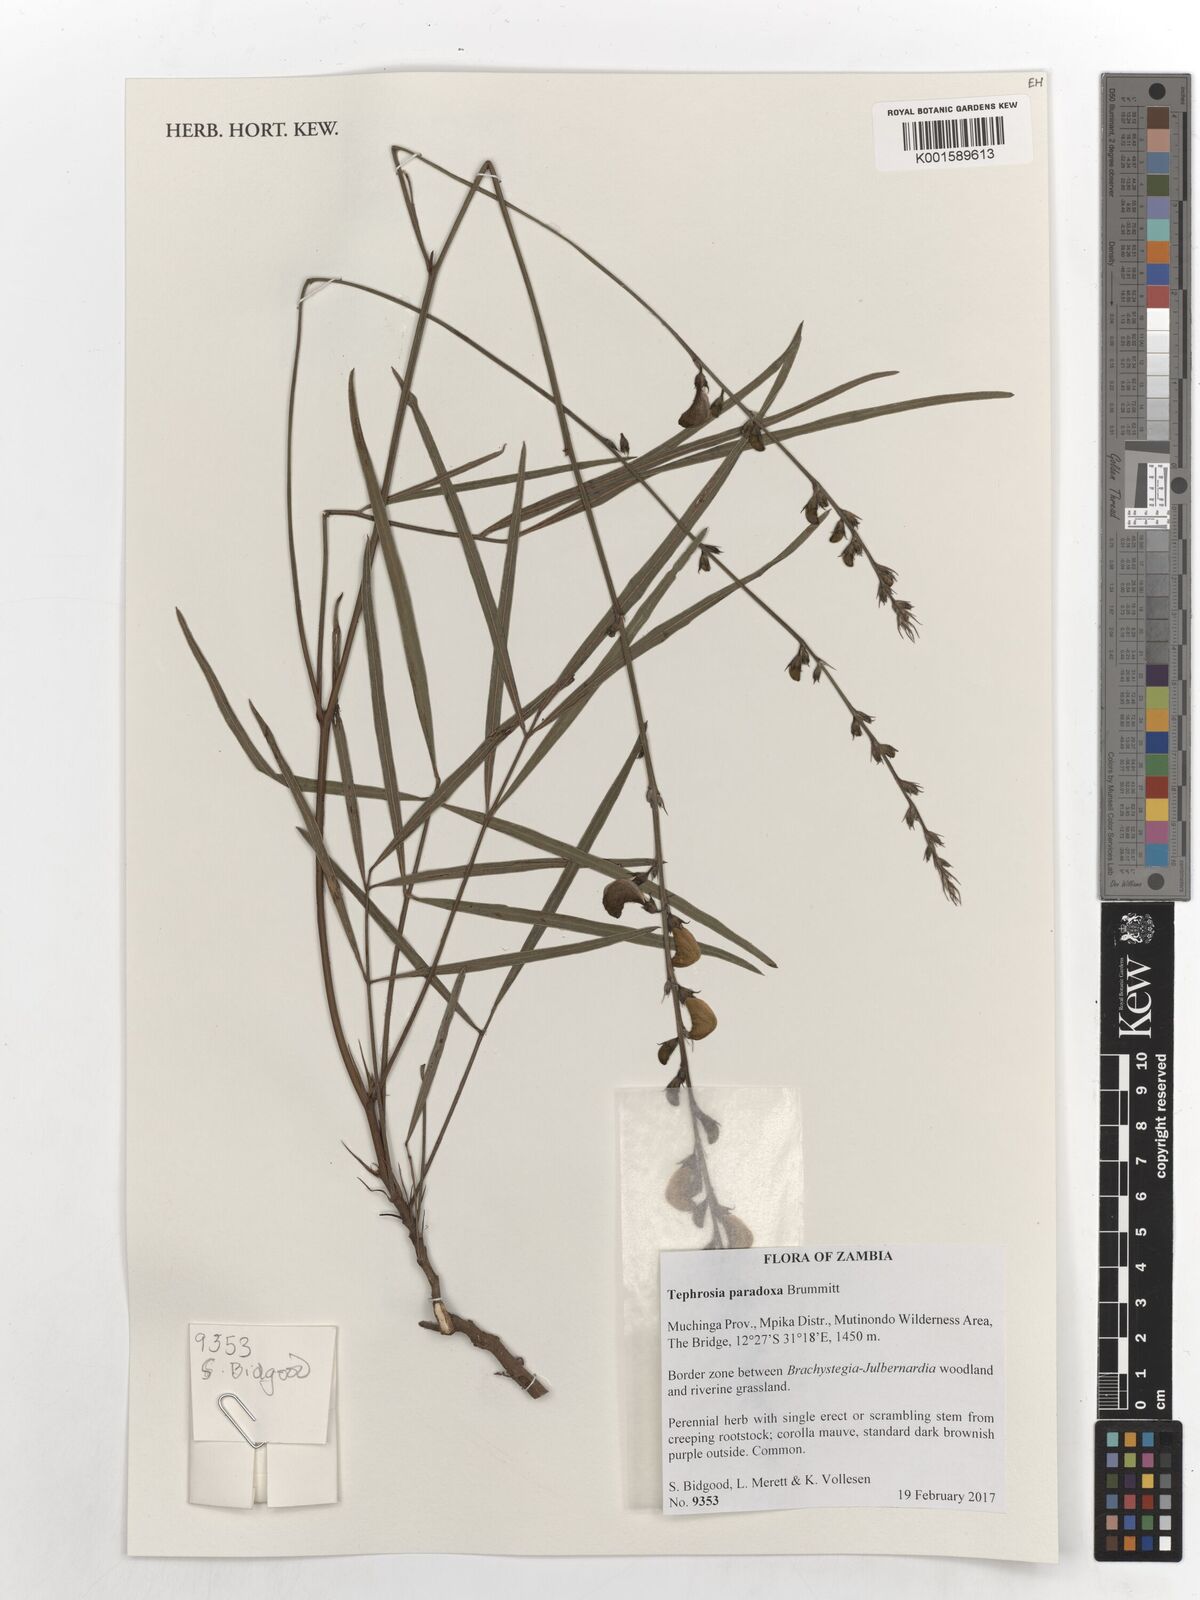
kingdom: Plantae
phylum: Tracheophyta
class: Magnoliopsida
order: Fabales
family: Fabaceae
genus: Tephrosia
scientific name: Tephrosia paradoxa
